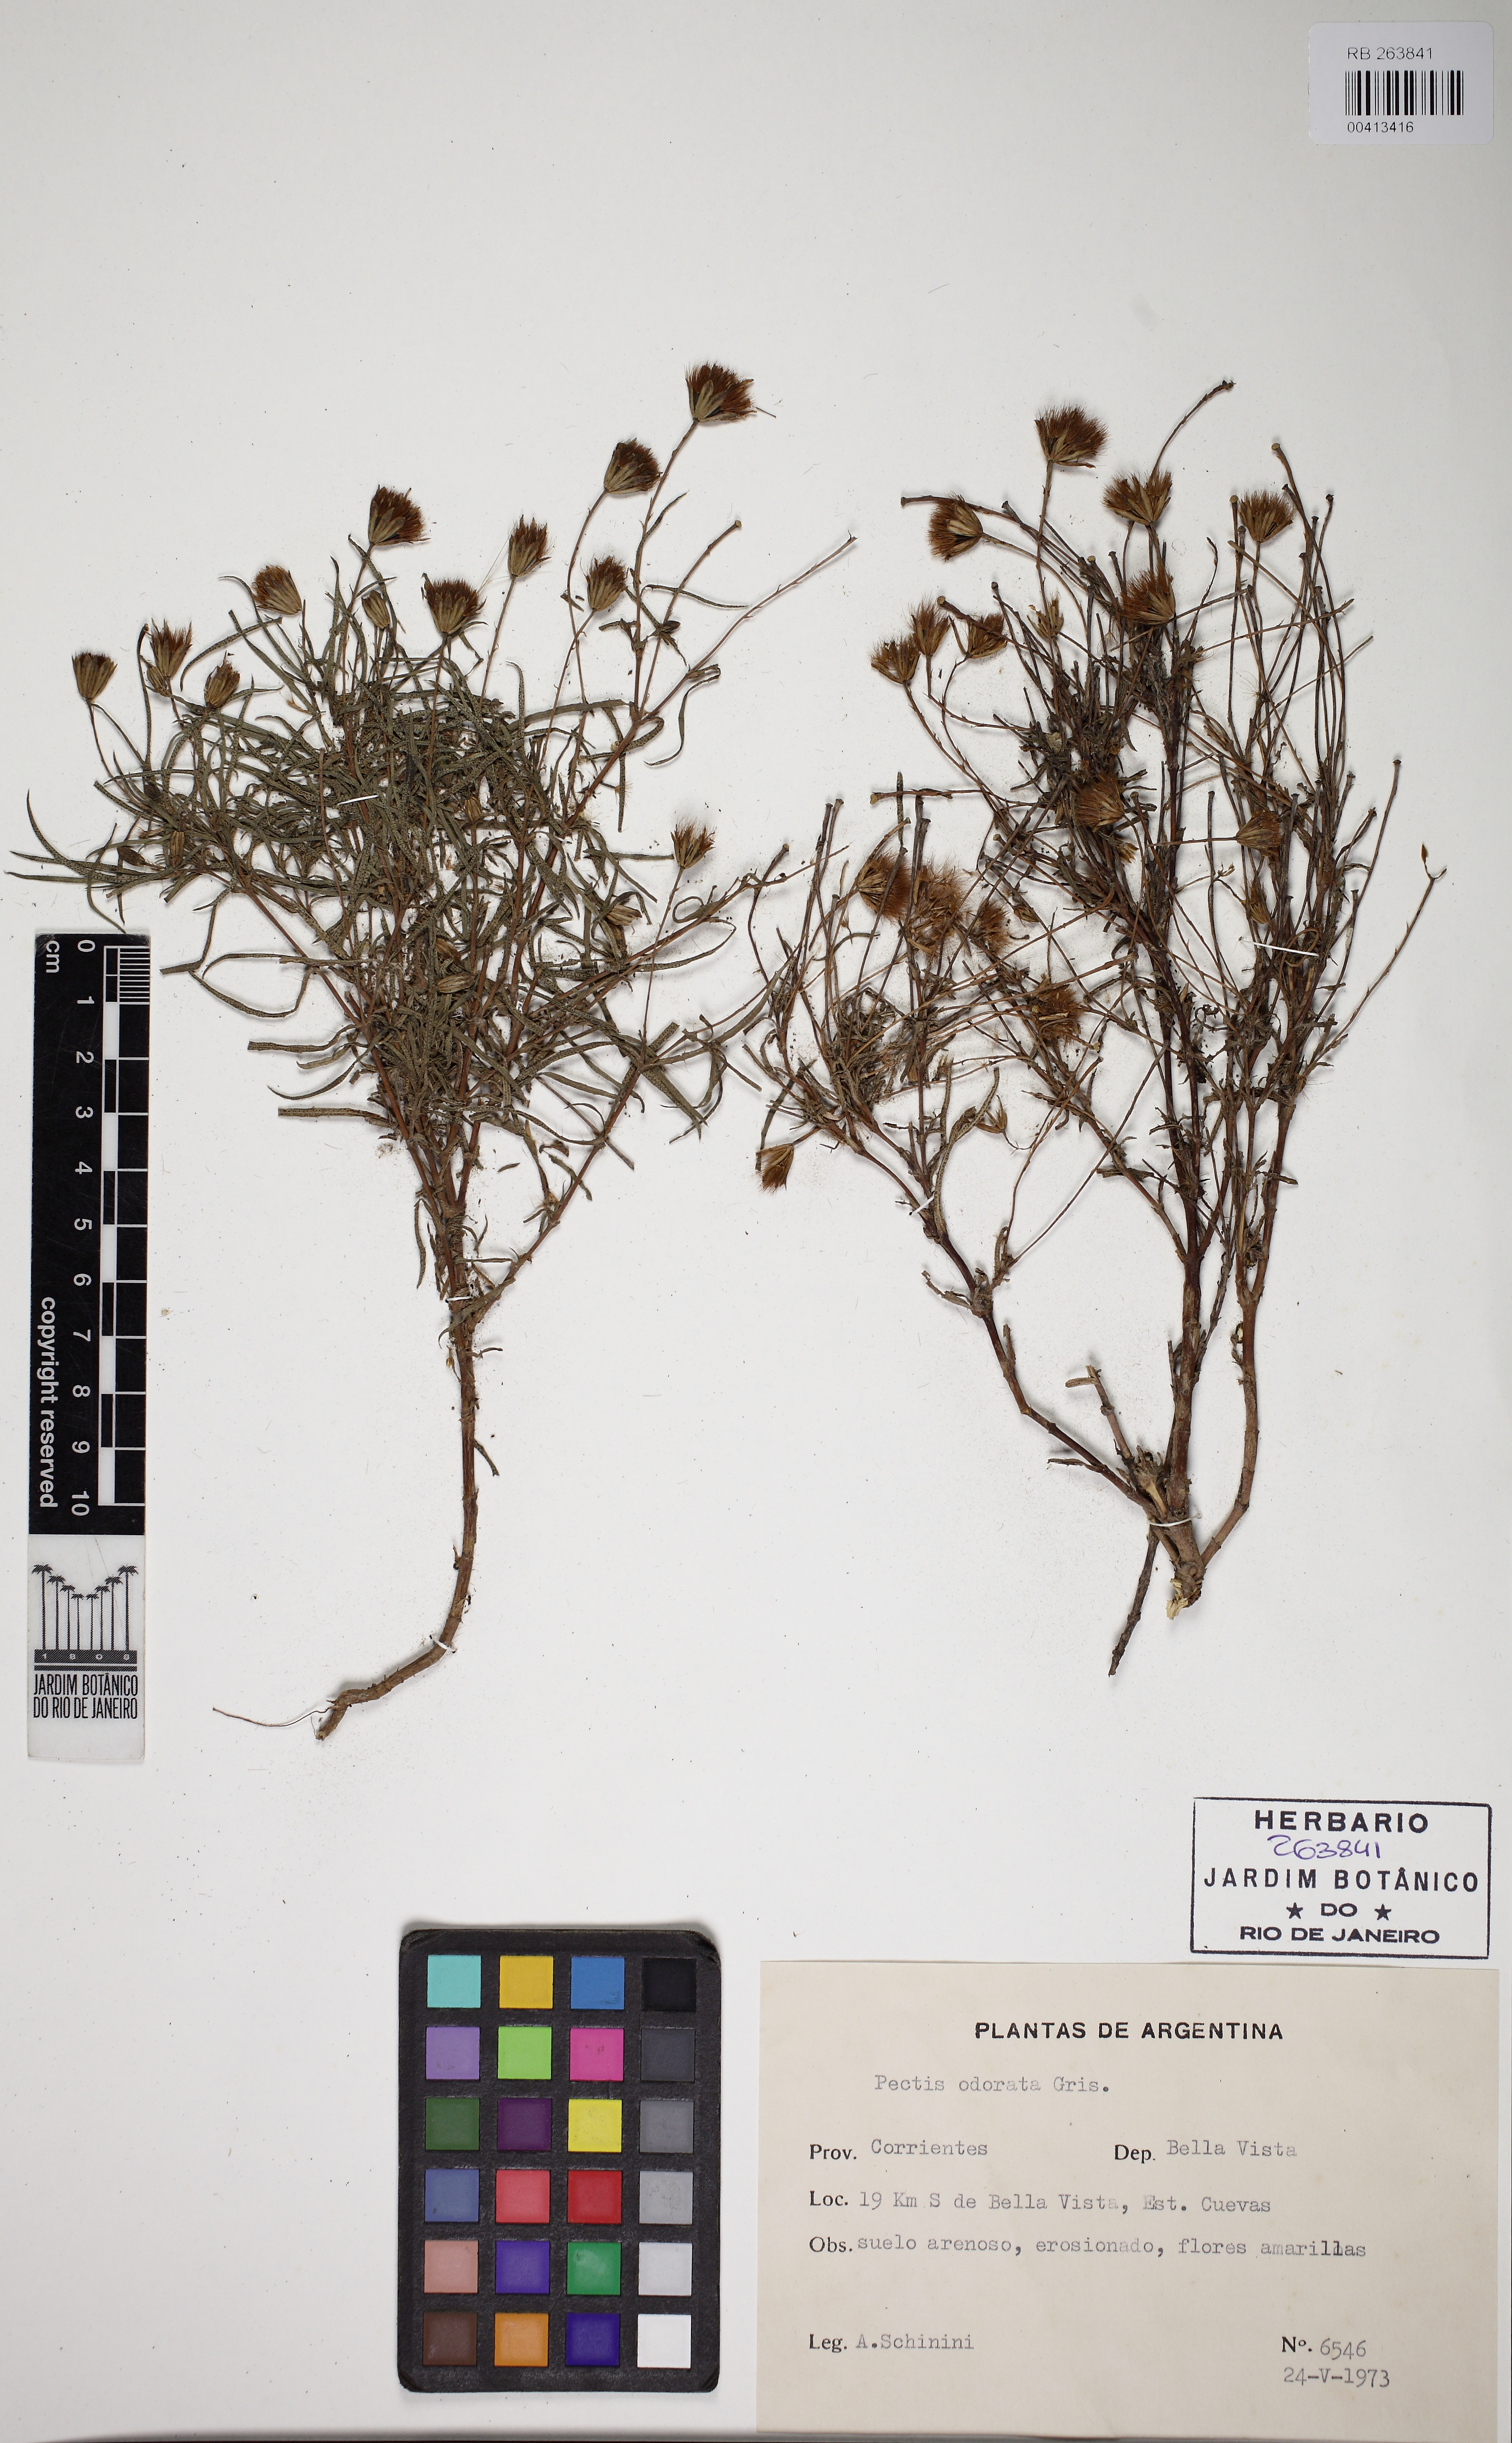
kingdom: Plantae
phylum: Tracheophyta
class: Magnoliopsida
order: Asterales
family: Asteraceae
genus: Pectis
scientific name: Pectis odorata
